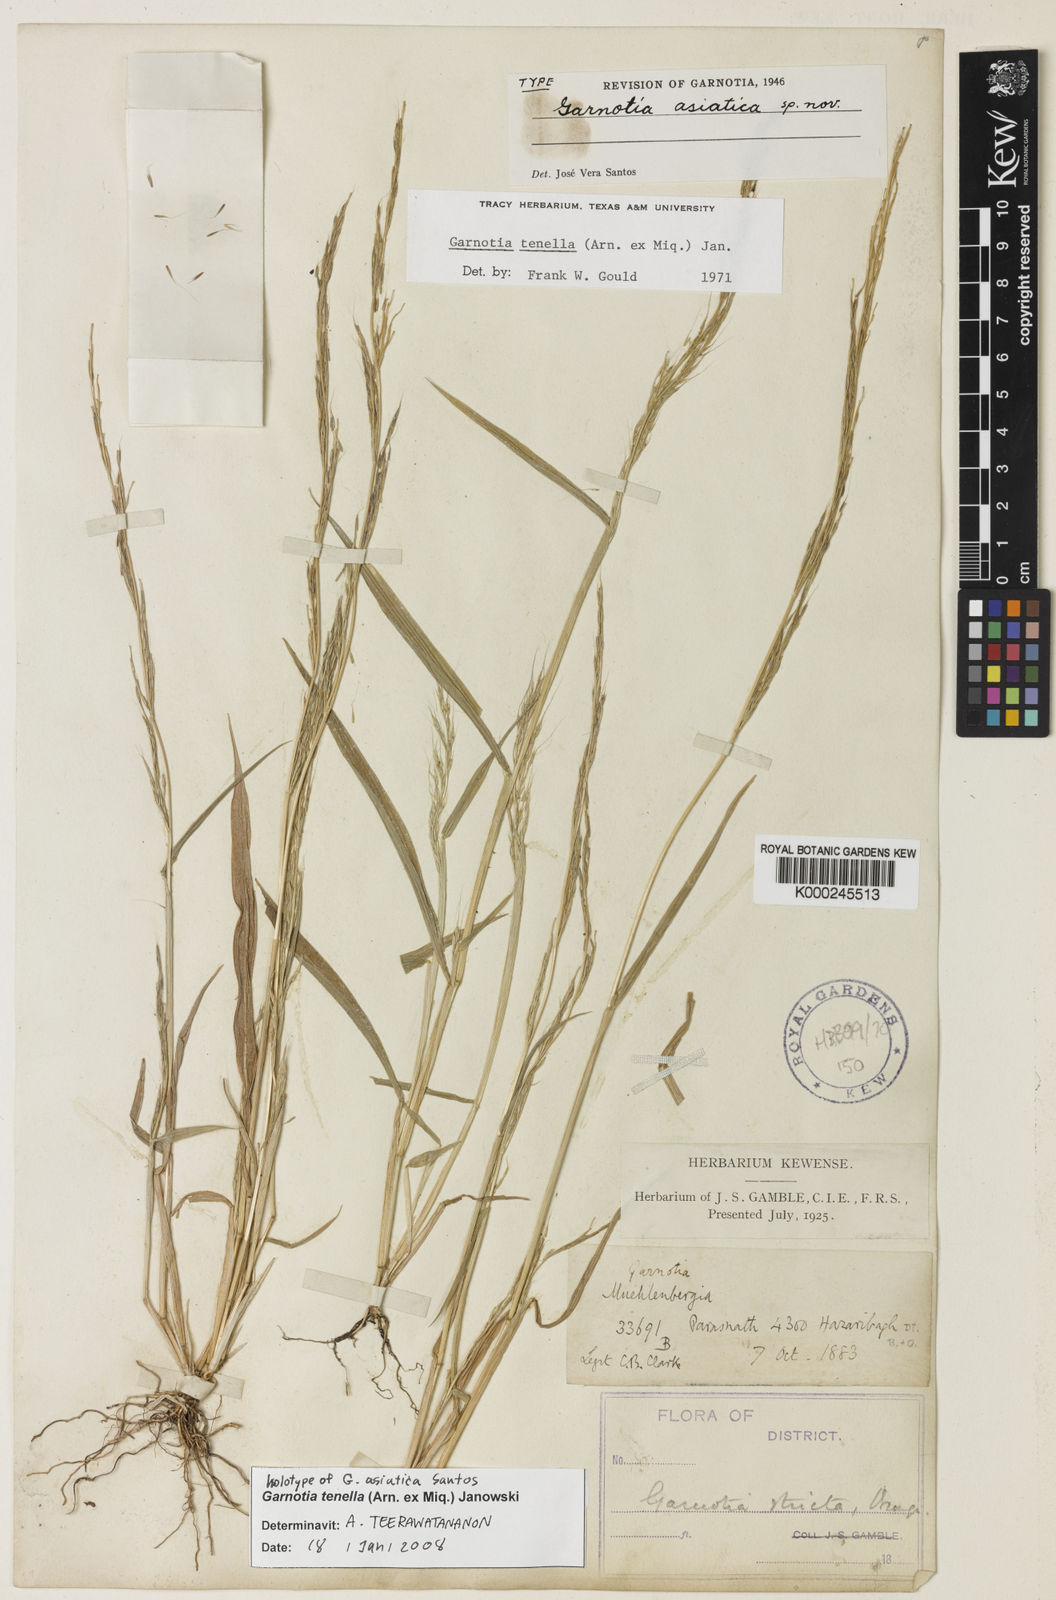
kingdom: Plantae
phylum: Tracheophyta
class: Liliopsida
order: Poales
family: Poaceae
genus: Garnotia
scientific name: Garnotia tenella
